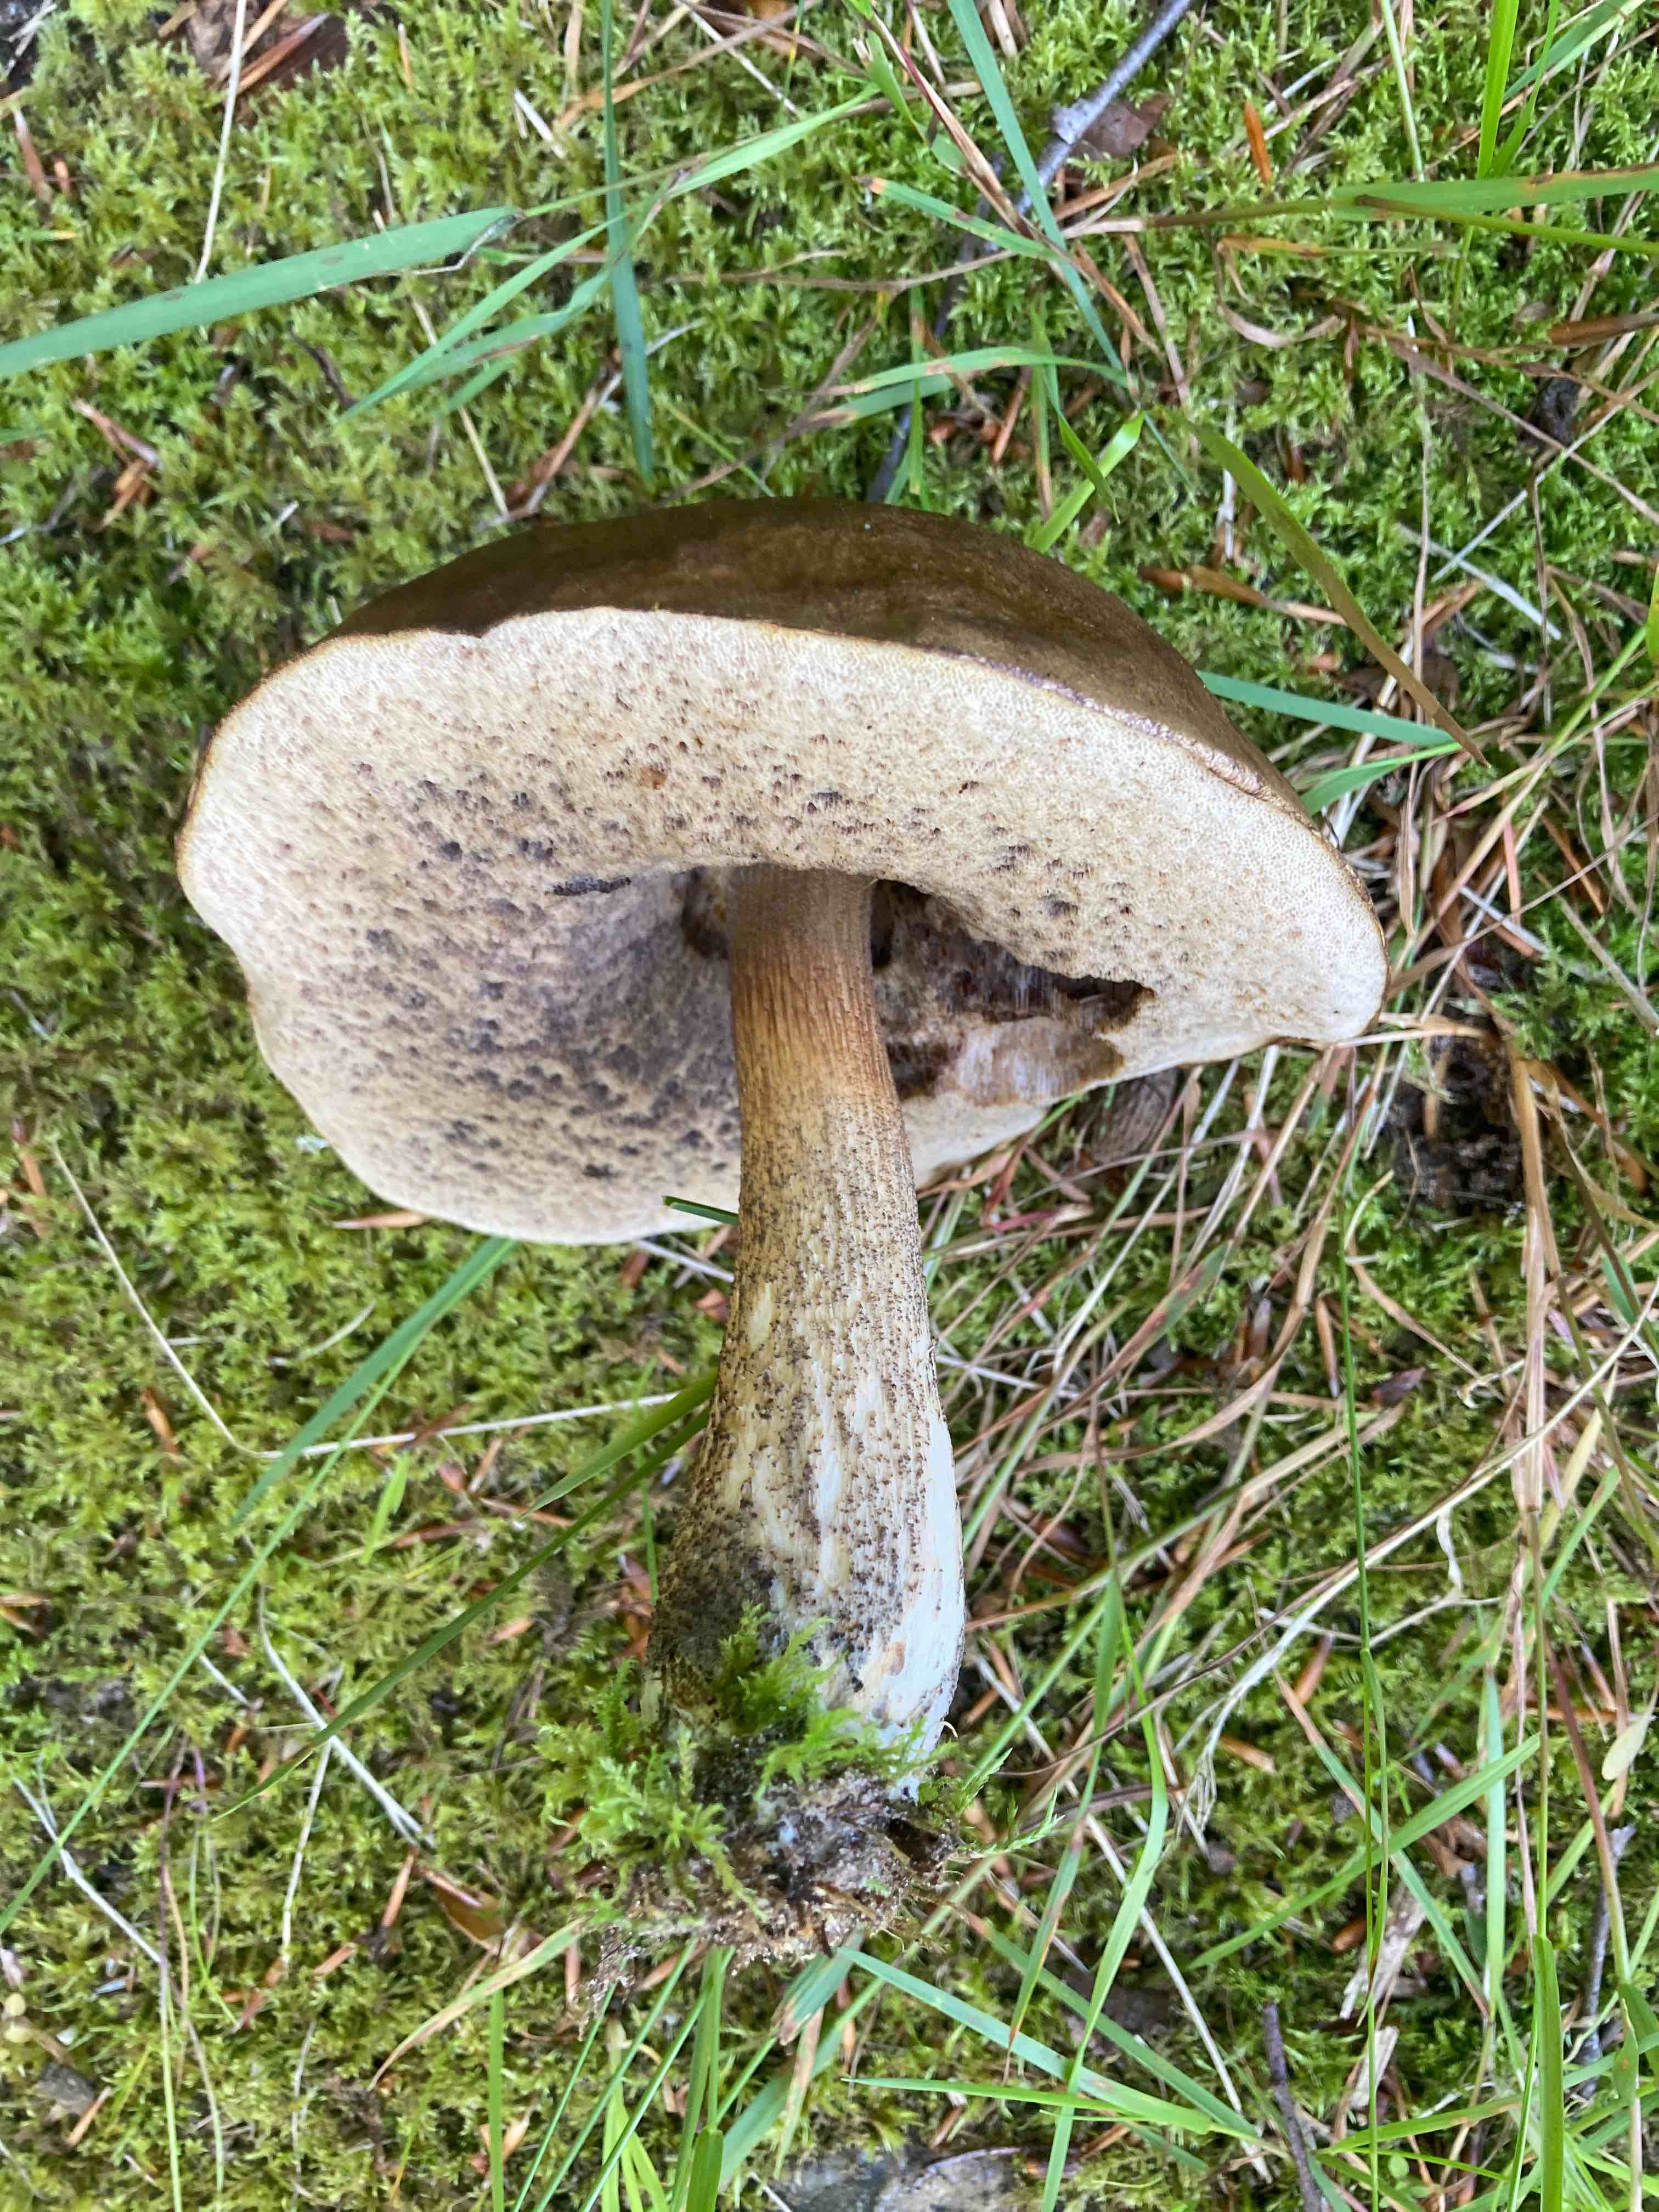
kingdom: Fungi
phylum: Basidiomycota
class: Agaricomycetes
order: Boletales
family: Boletaceae
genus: Leccinum
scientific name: Leccinum scabrum
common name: brun skælrørhat
